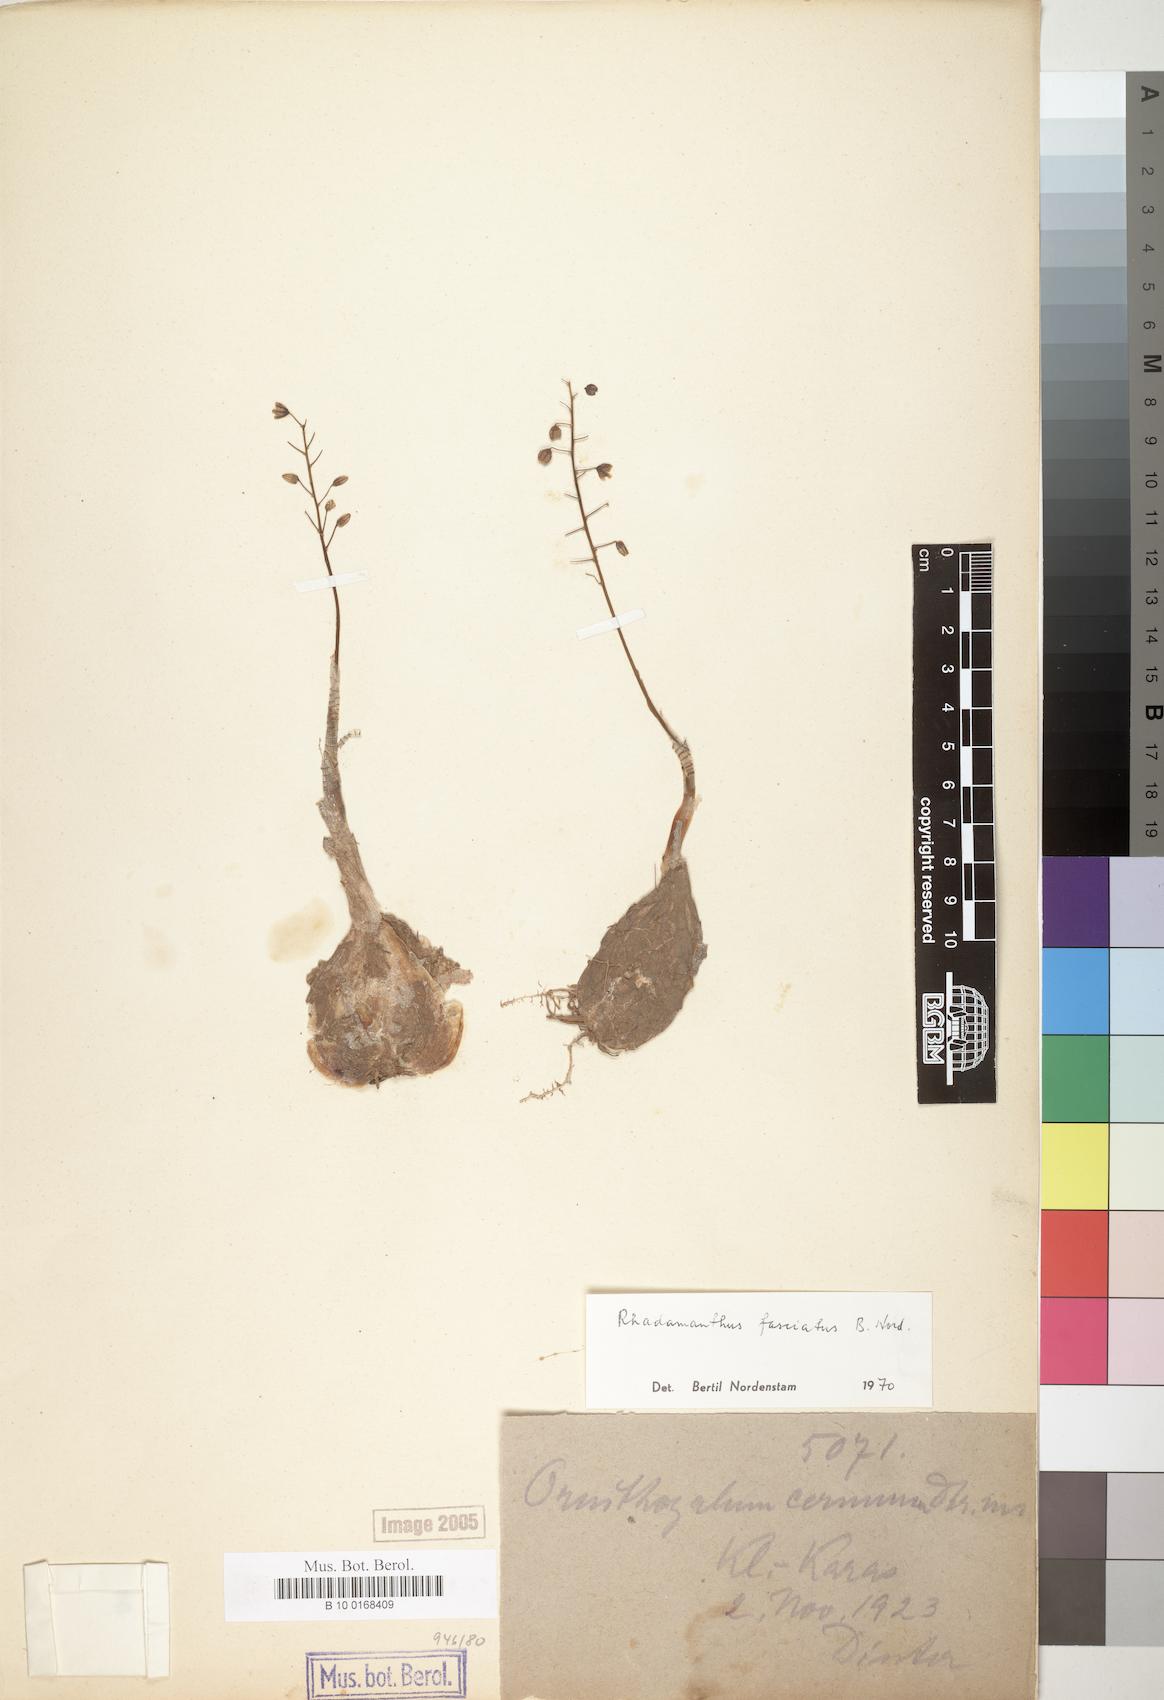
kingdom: Plantae
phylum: Tracheophyta
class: Liliopsida
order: Asparagales
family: Asparagaceae
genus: Drimia
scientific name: Drimia fasciata
